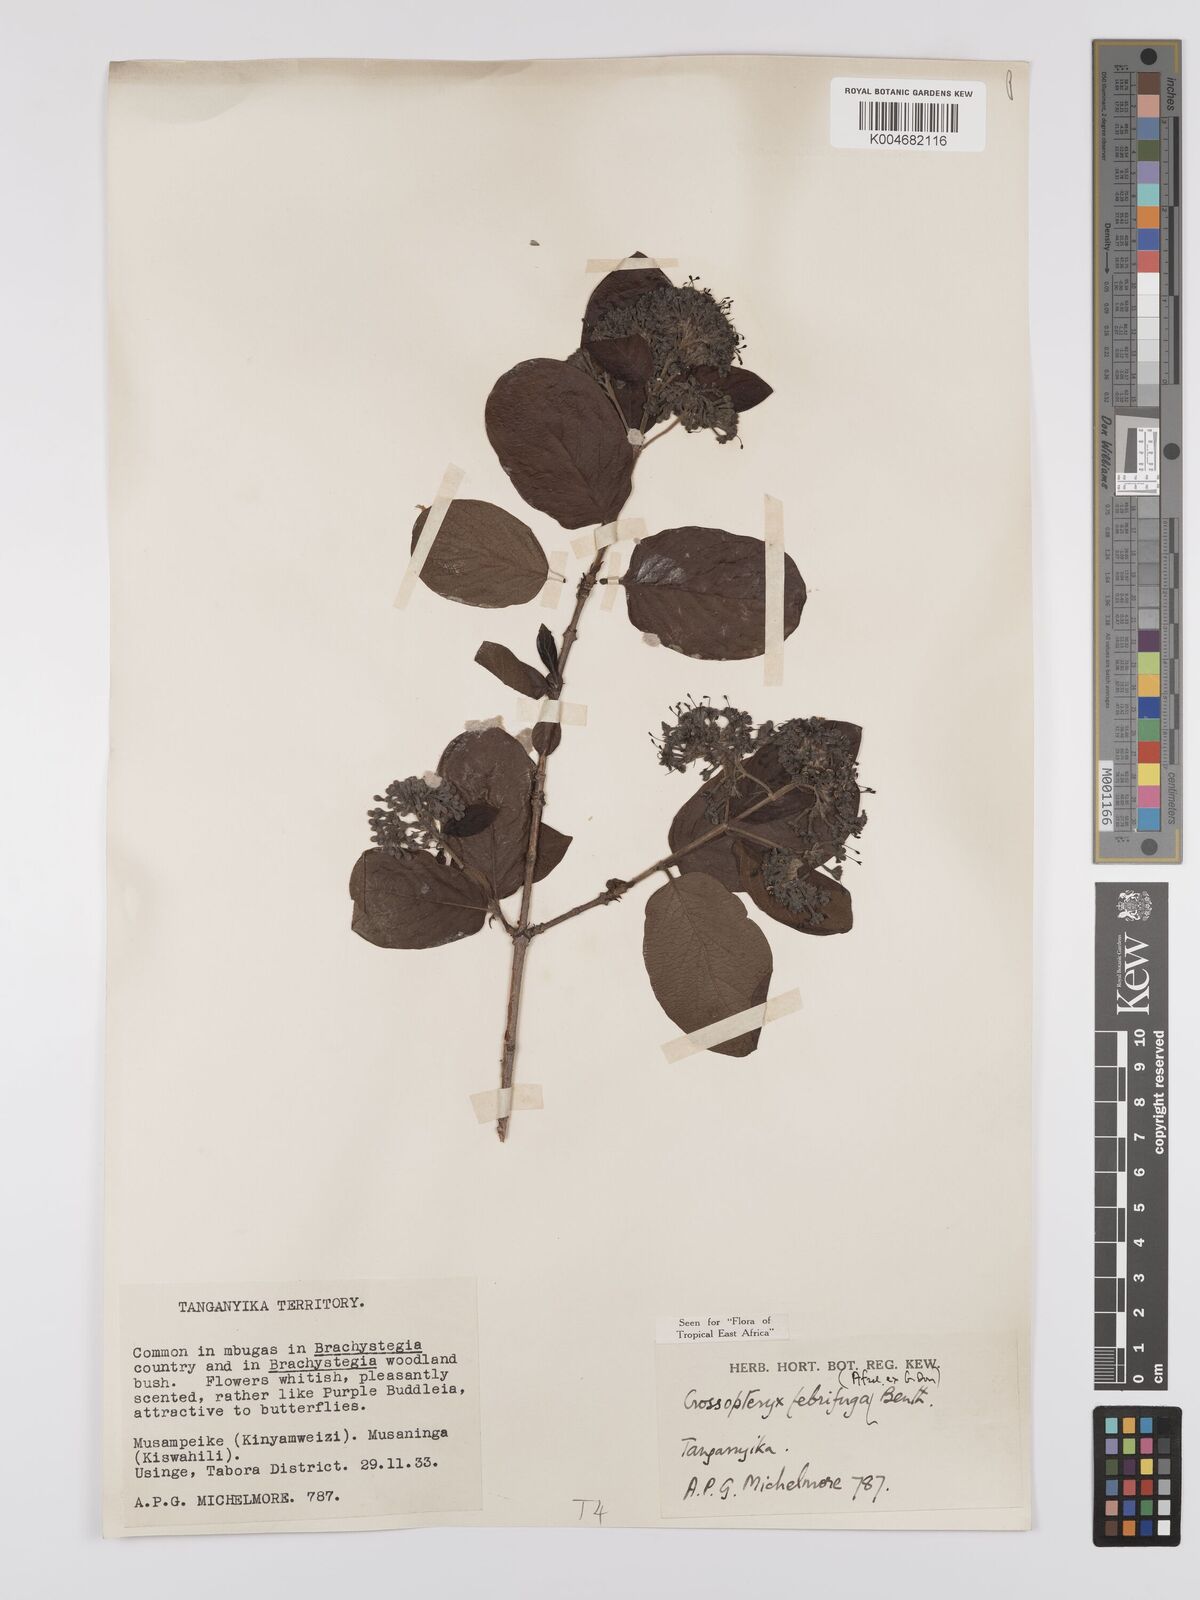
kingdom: Plantae
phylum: Tracheophyta
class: Magnoliopsida
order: Gentianales
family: Rubiaceae
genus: Crossopteryx
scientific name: Crossopteryx febrifuga
